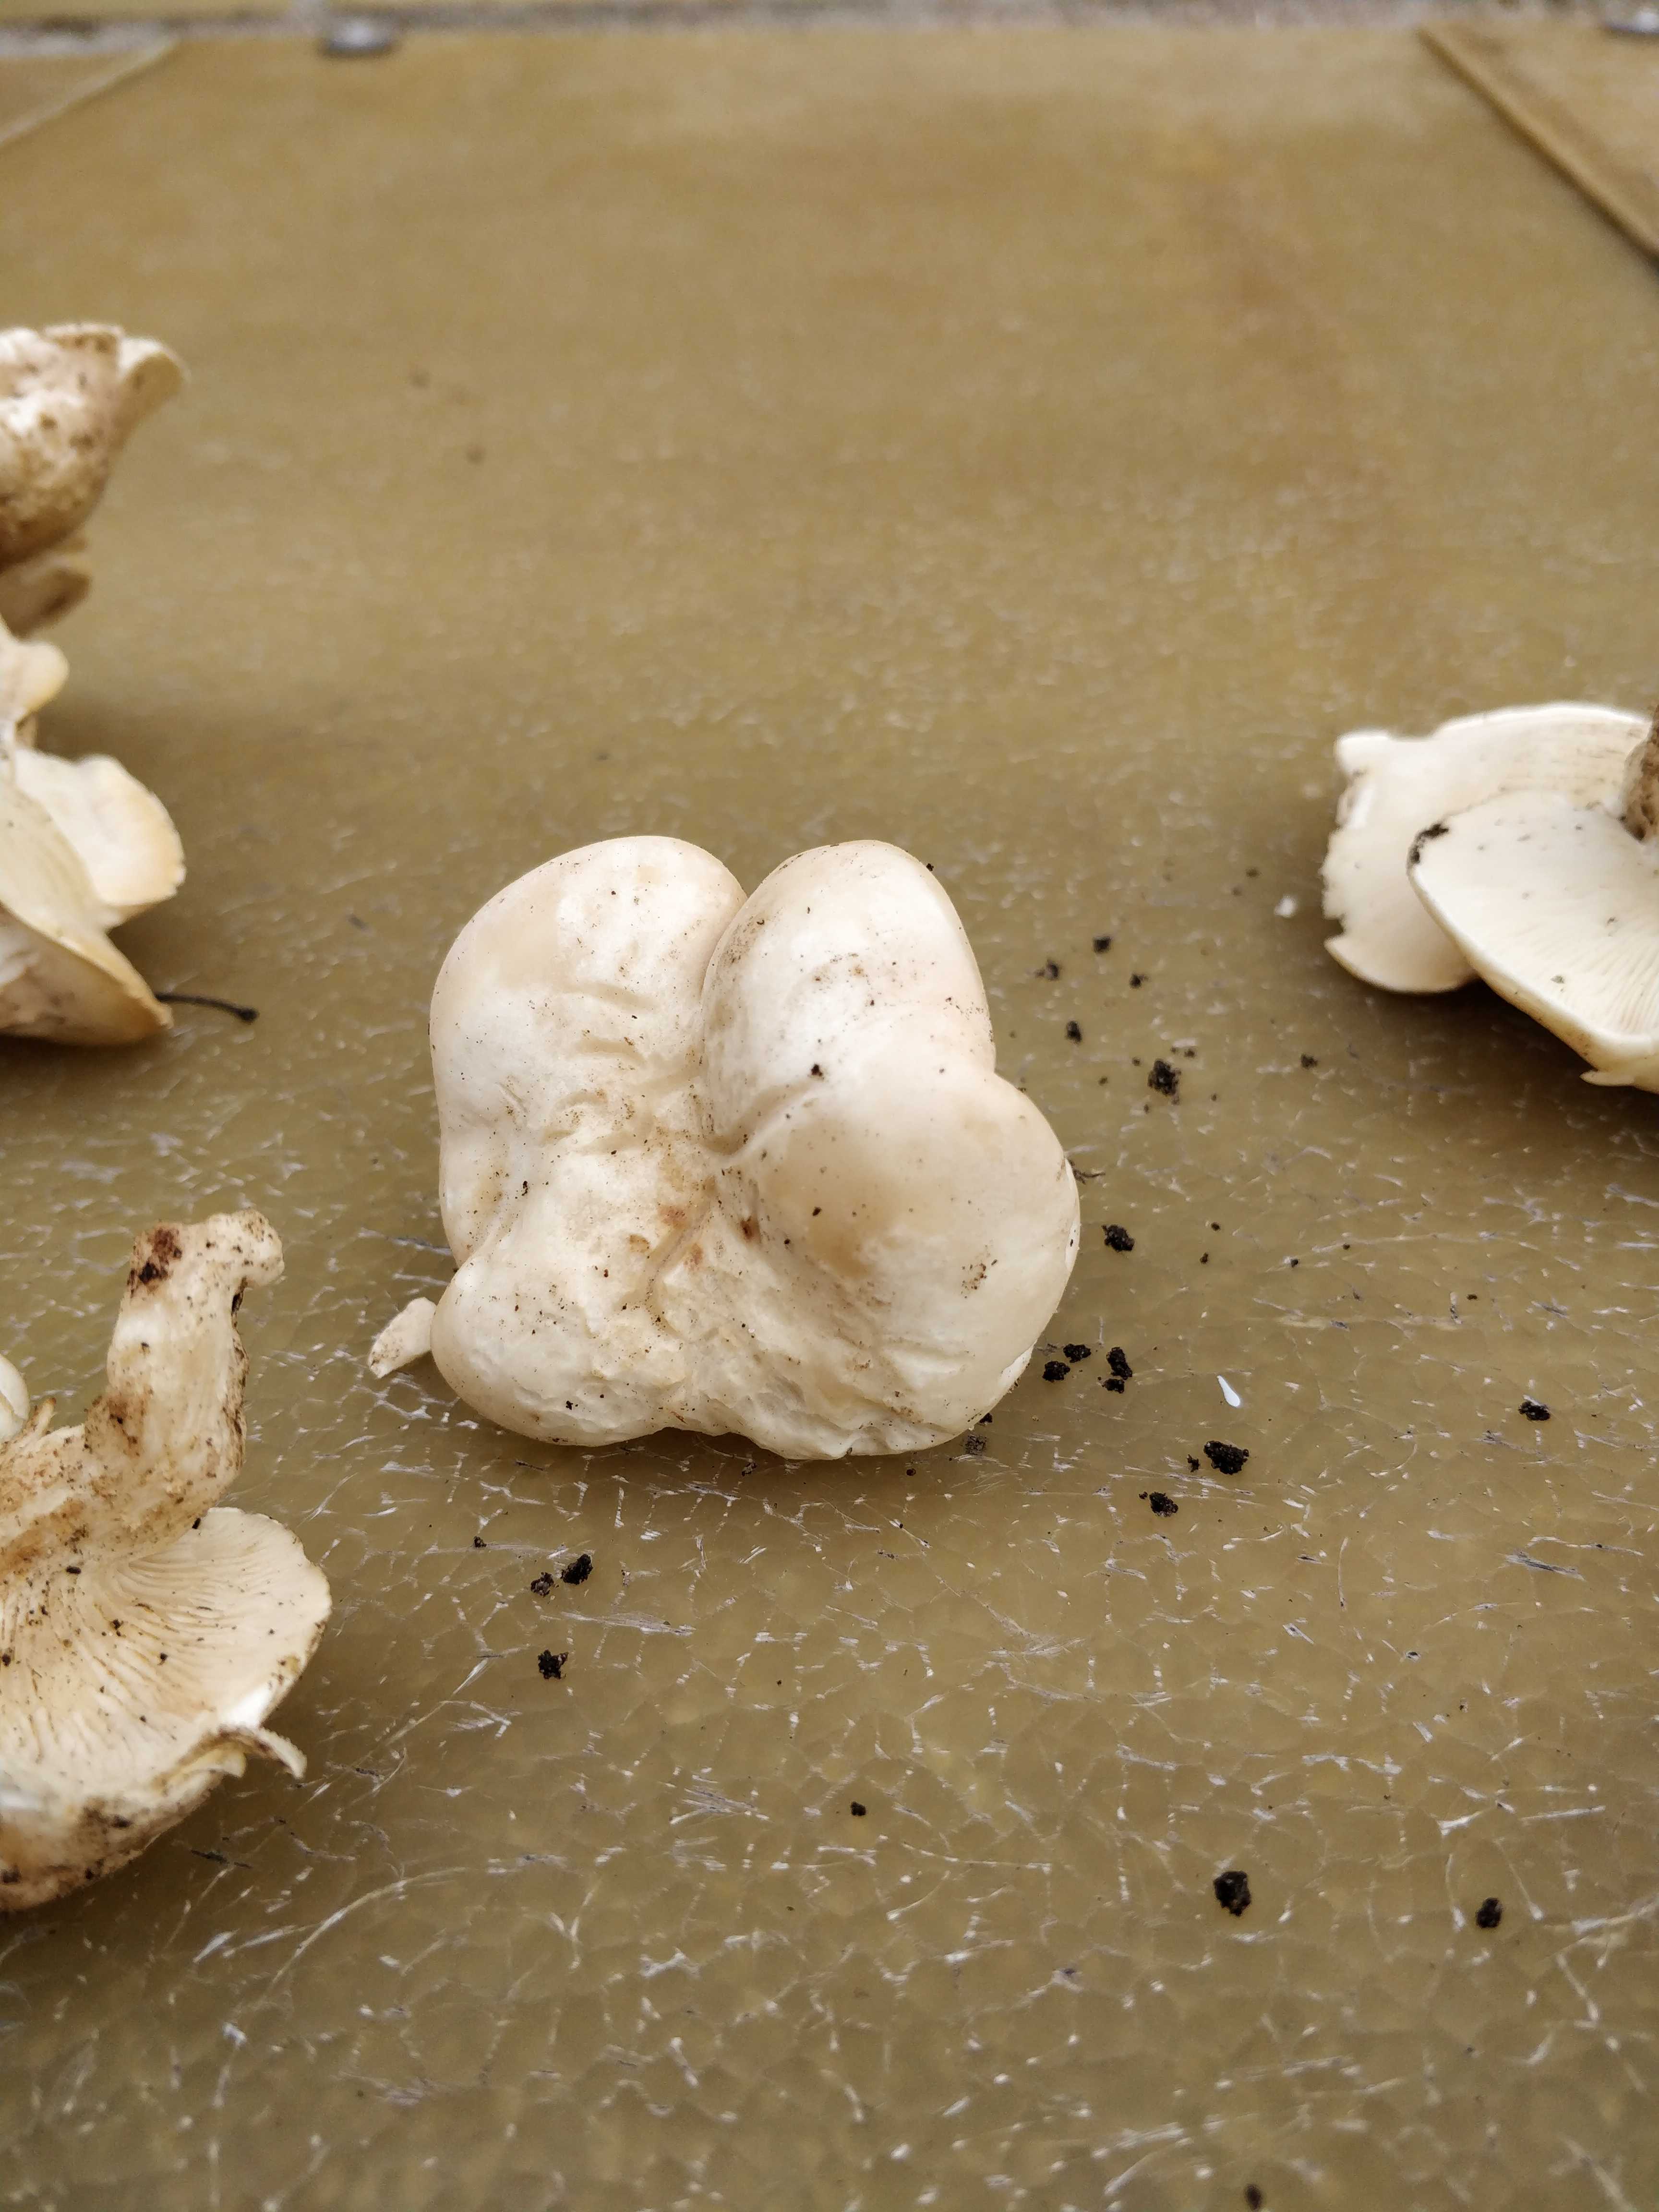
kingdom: Fungi
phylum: Basidiomycota
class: Agaricomycetes
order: Agaricales
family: Lyophyllaceae
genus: Calocybe
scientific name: Calocybe gambosa
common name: vårmusseron
